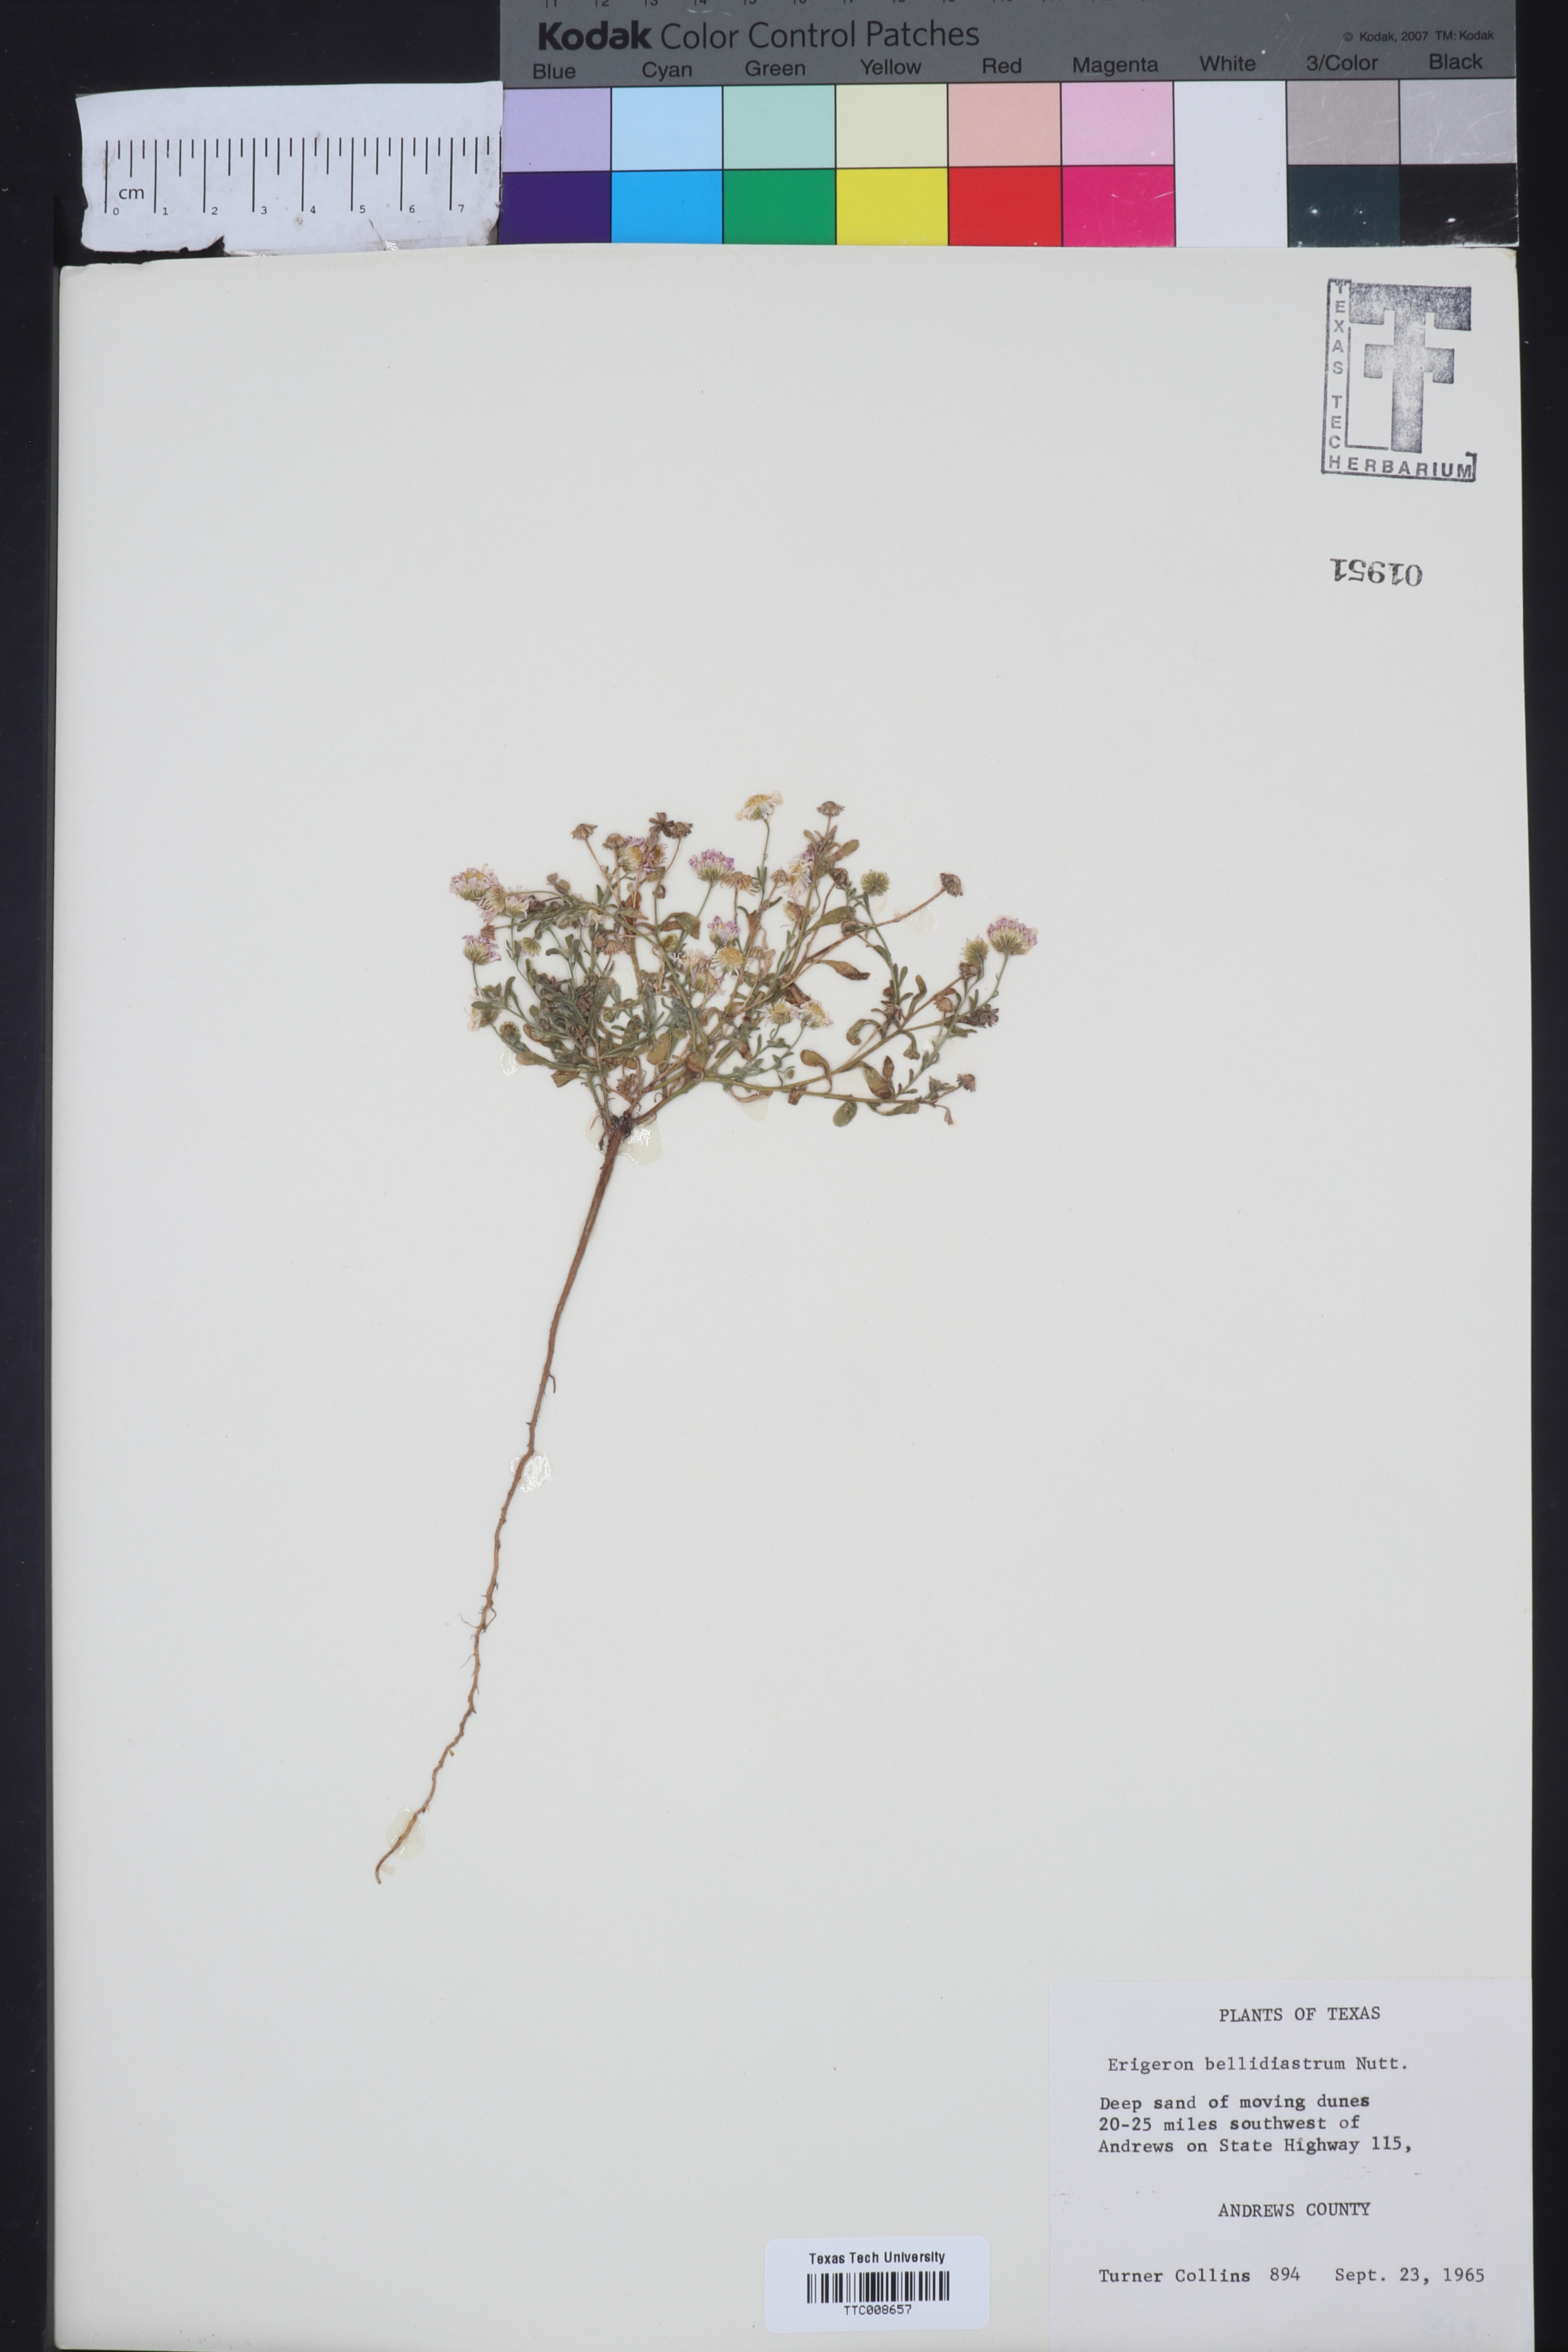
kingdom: Plantae
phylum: Tracheophyta
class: Magnoliopsida
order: Asterales
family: Asteraceae
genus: Erigeron
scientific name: Erigeron bellidiastrum
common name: Sand fleabane
